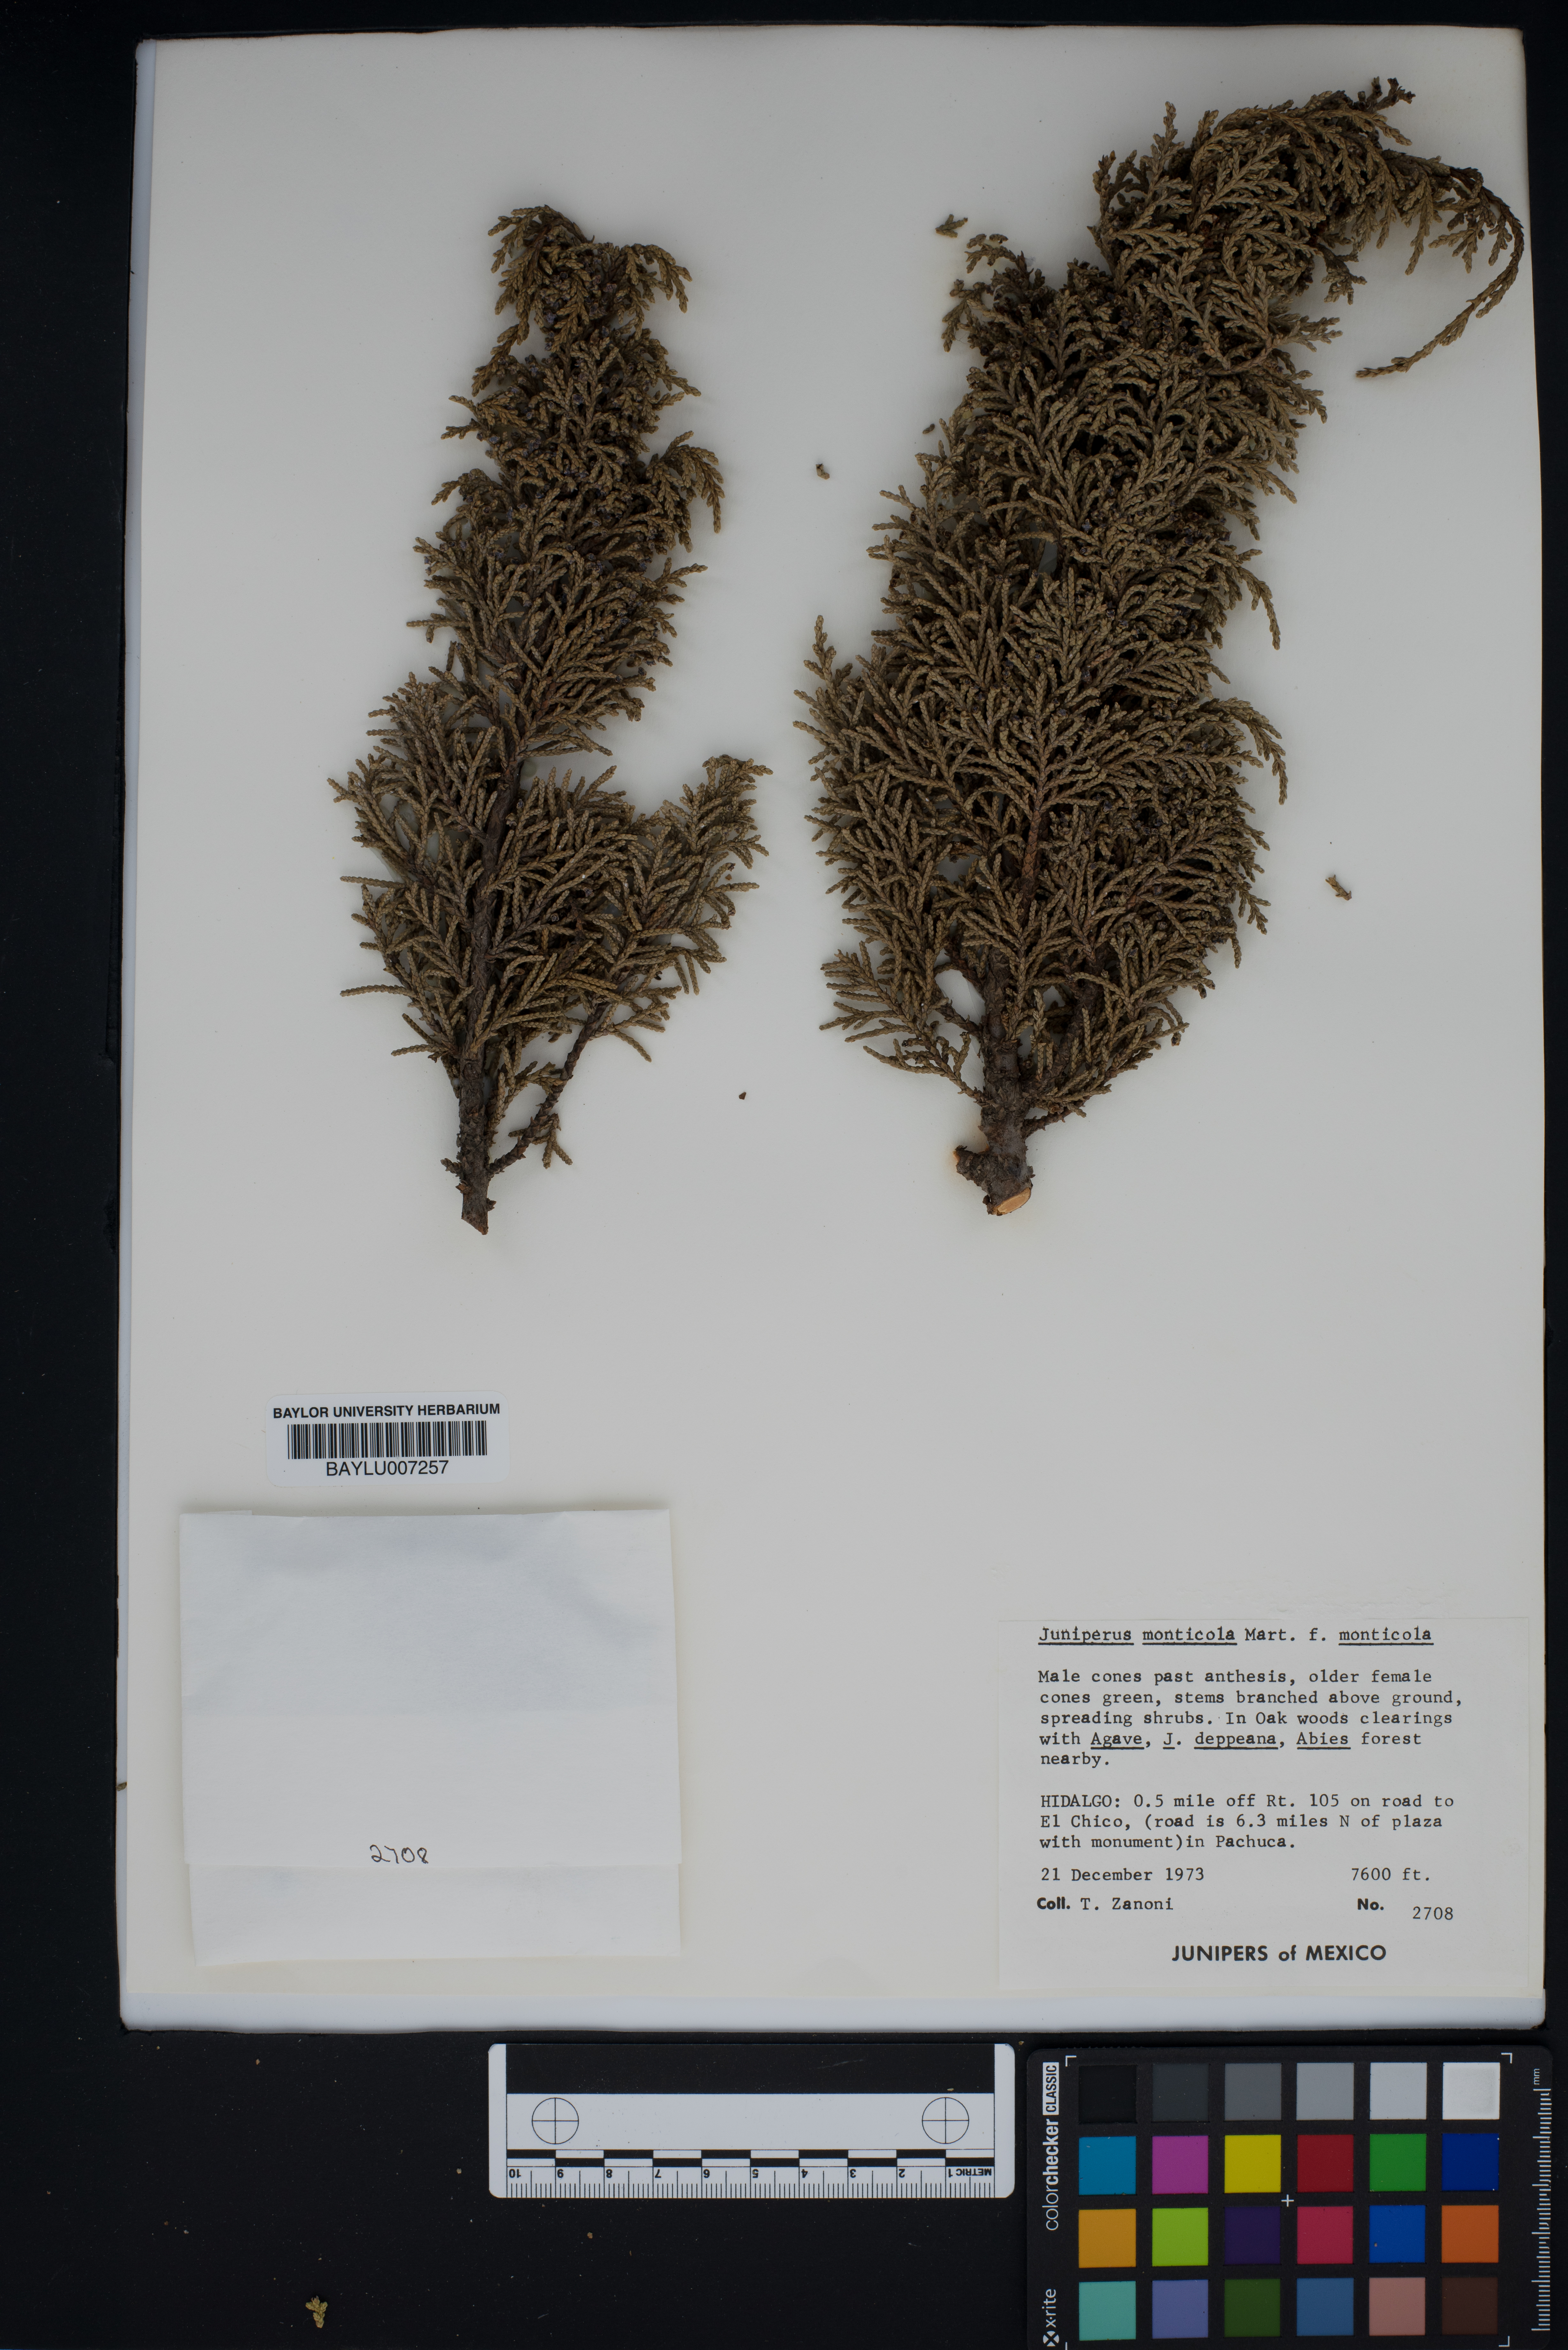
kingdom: Plantae
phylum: Tracheophyta
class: Pinopsida
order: Pinales
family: Cupressaceae
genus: Juniperus
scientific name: Juniperus monticola
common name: Mexican juniper
